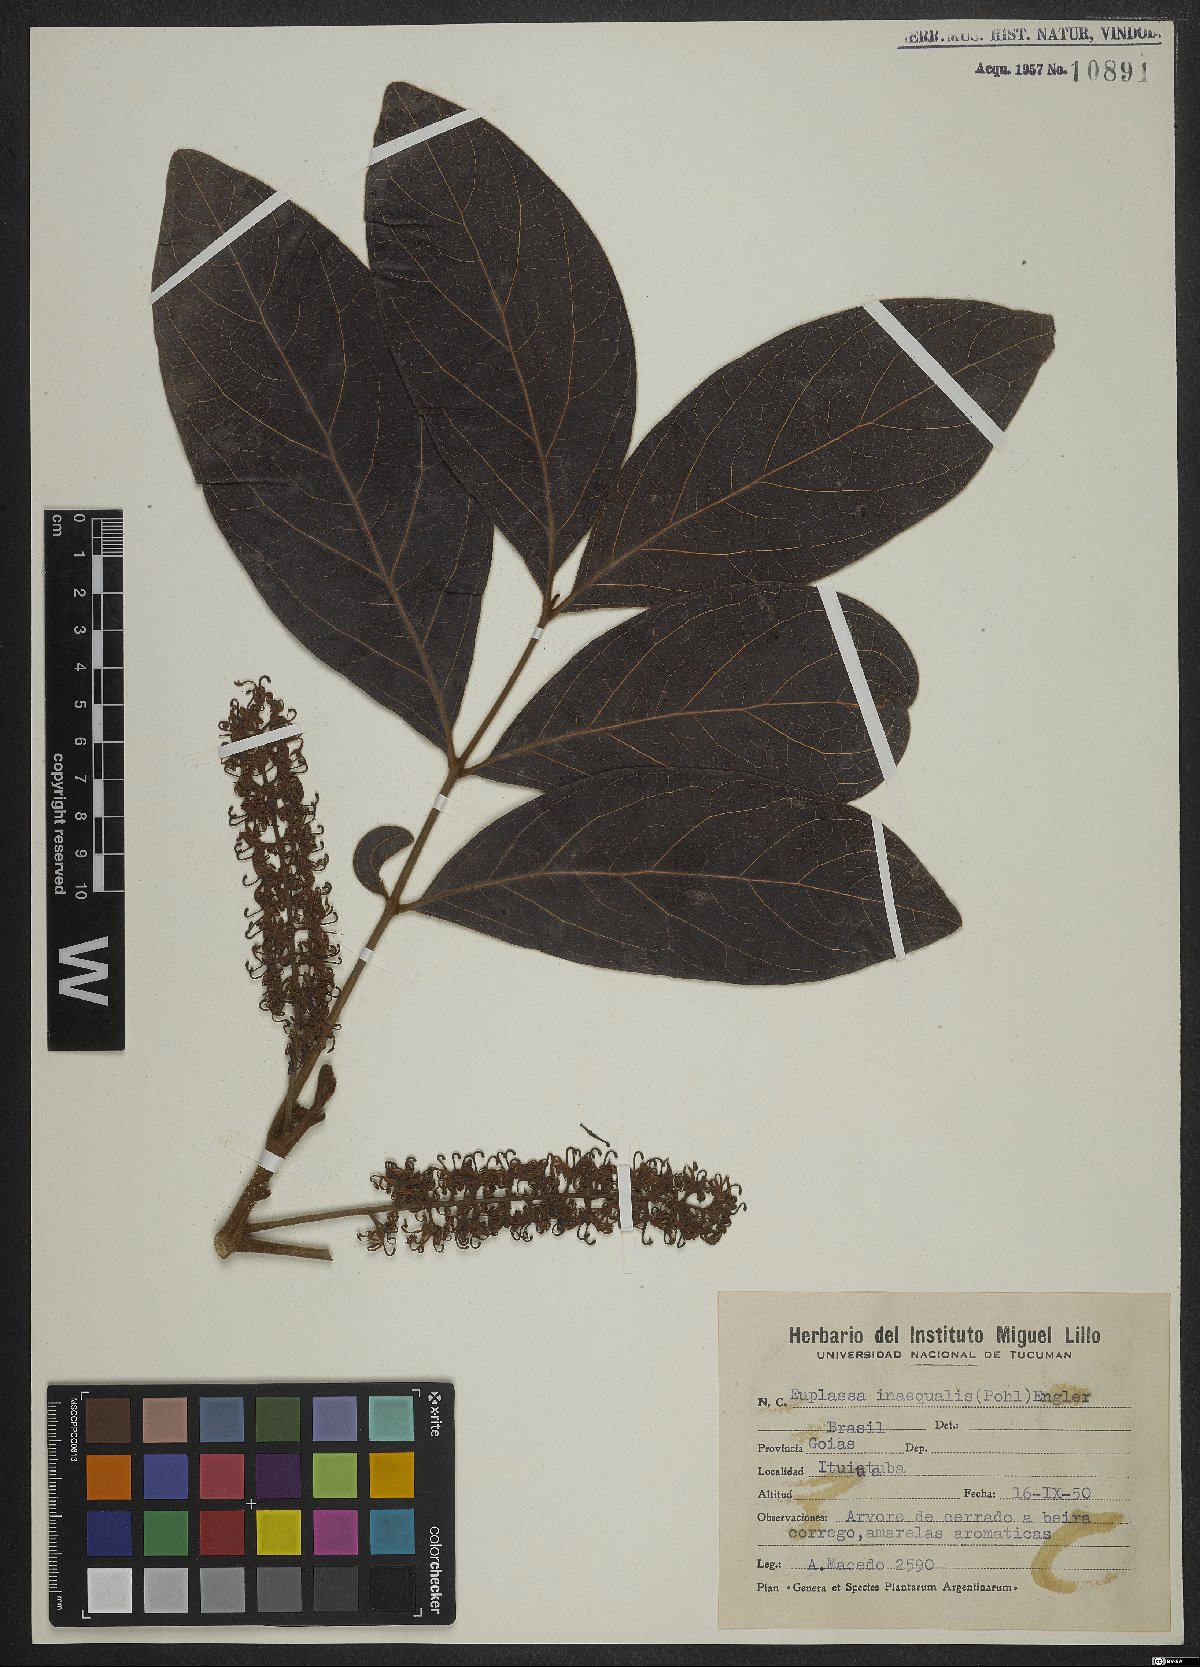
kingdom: Plantae
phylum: Tracheophyta
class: Magnoliopsida
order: Proteales
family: Proteaceae
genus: Euplassa
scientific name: Euplassa inaequalis
